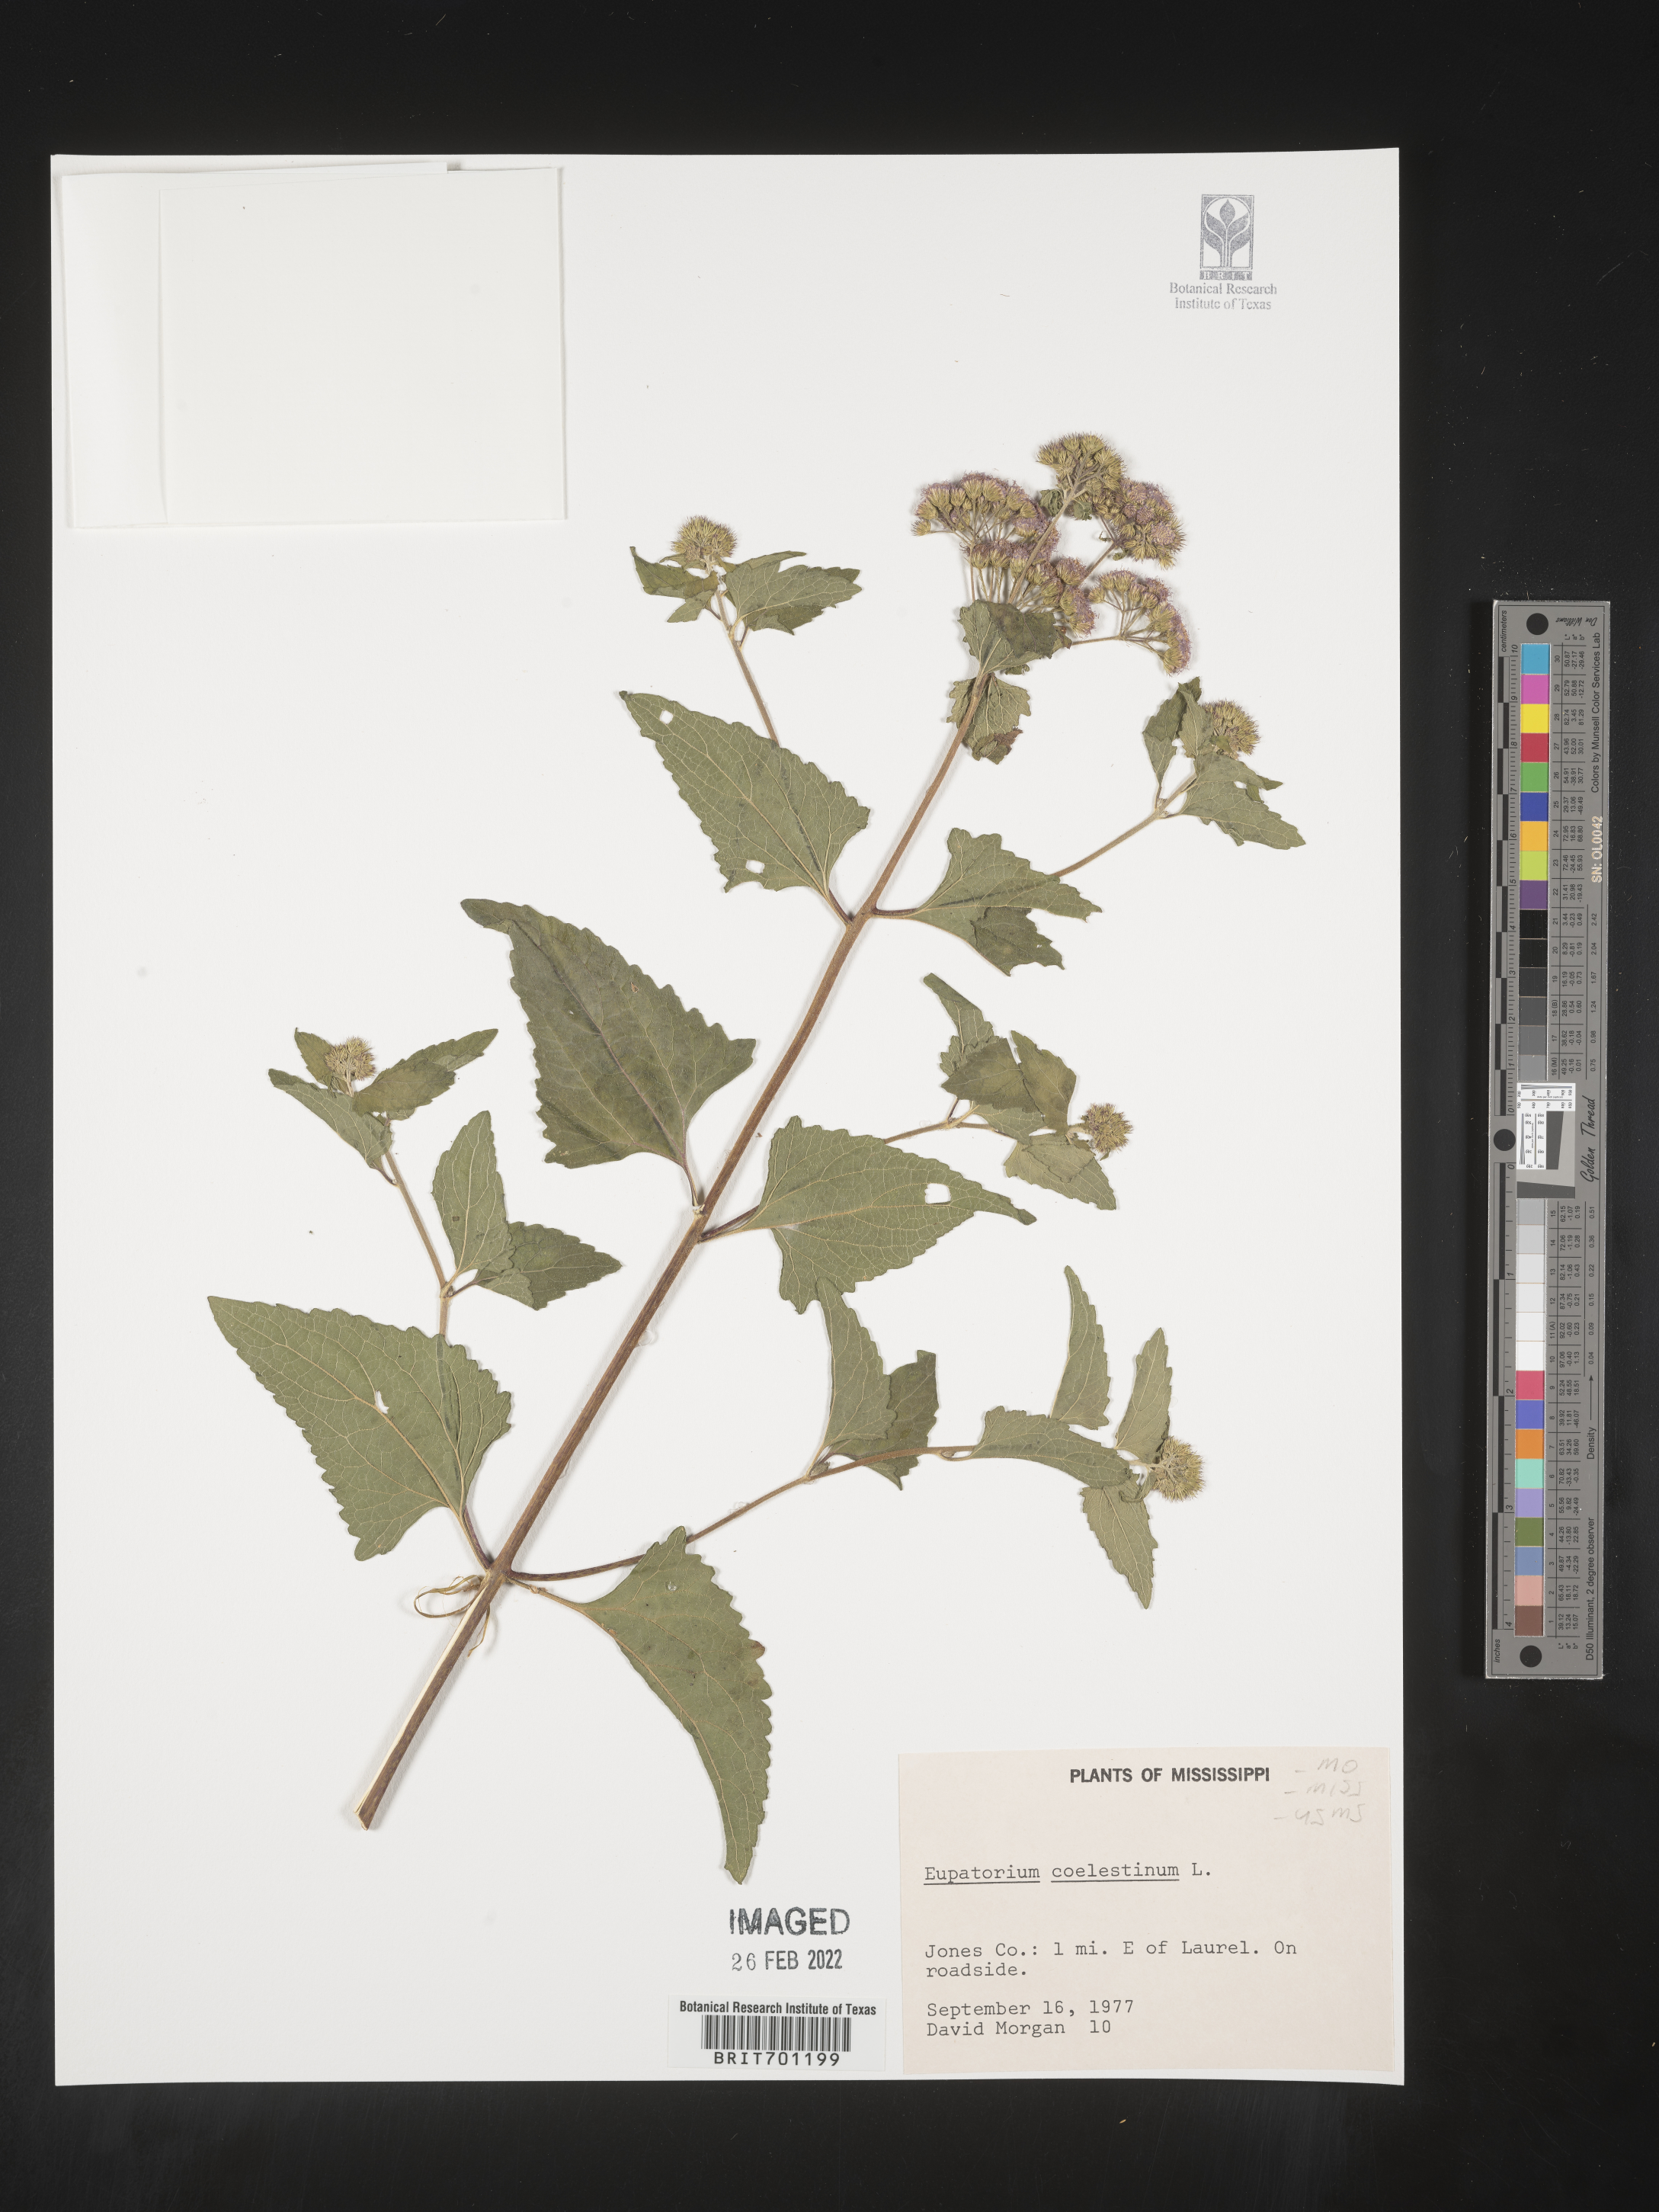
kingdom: Plantae
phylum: Tracheophyta
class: Magnoliopsida
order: Asterales
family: Asteraceae
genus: Conoclinium
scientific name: Conoclinium coelestinum
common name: Blue mistflower
